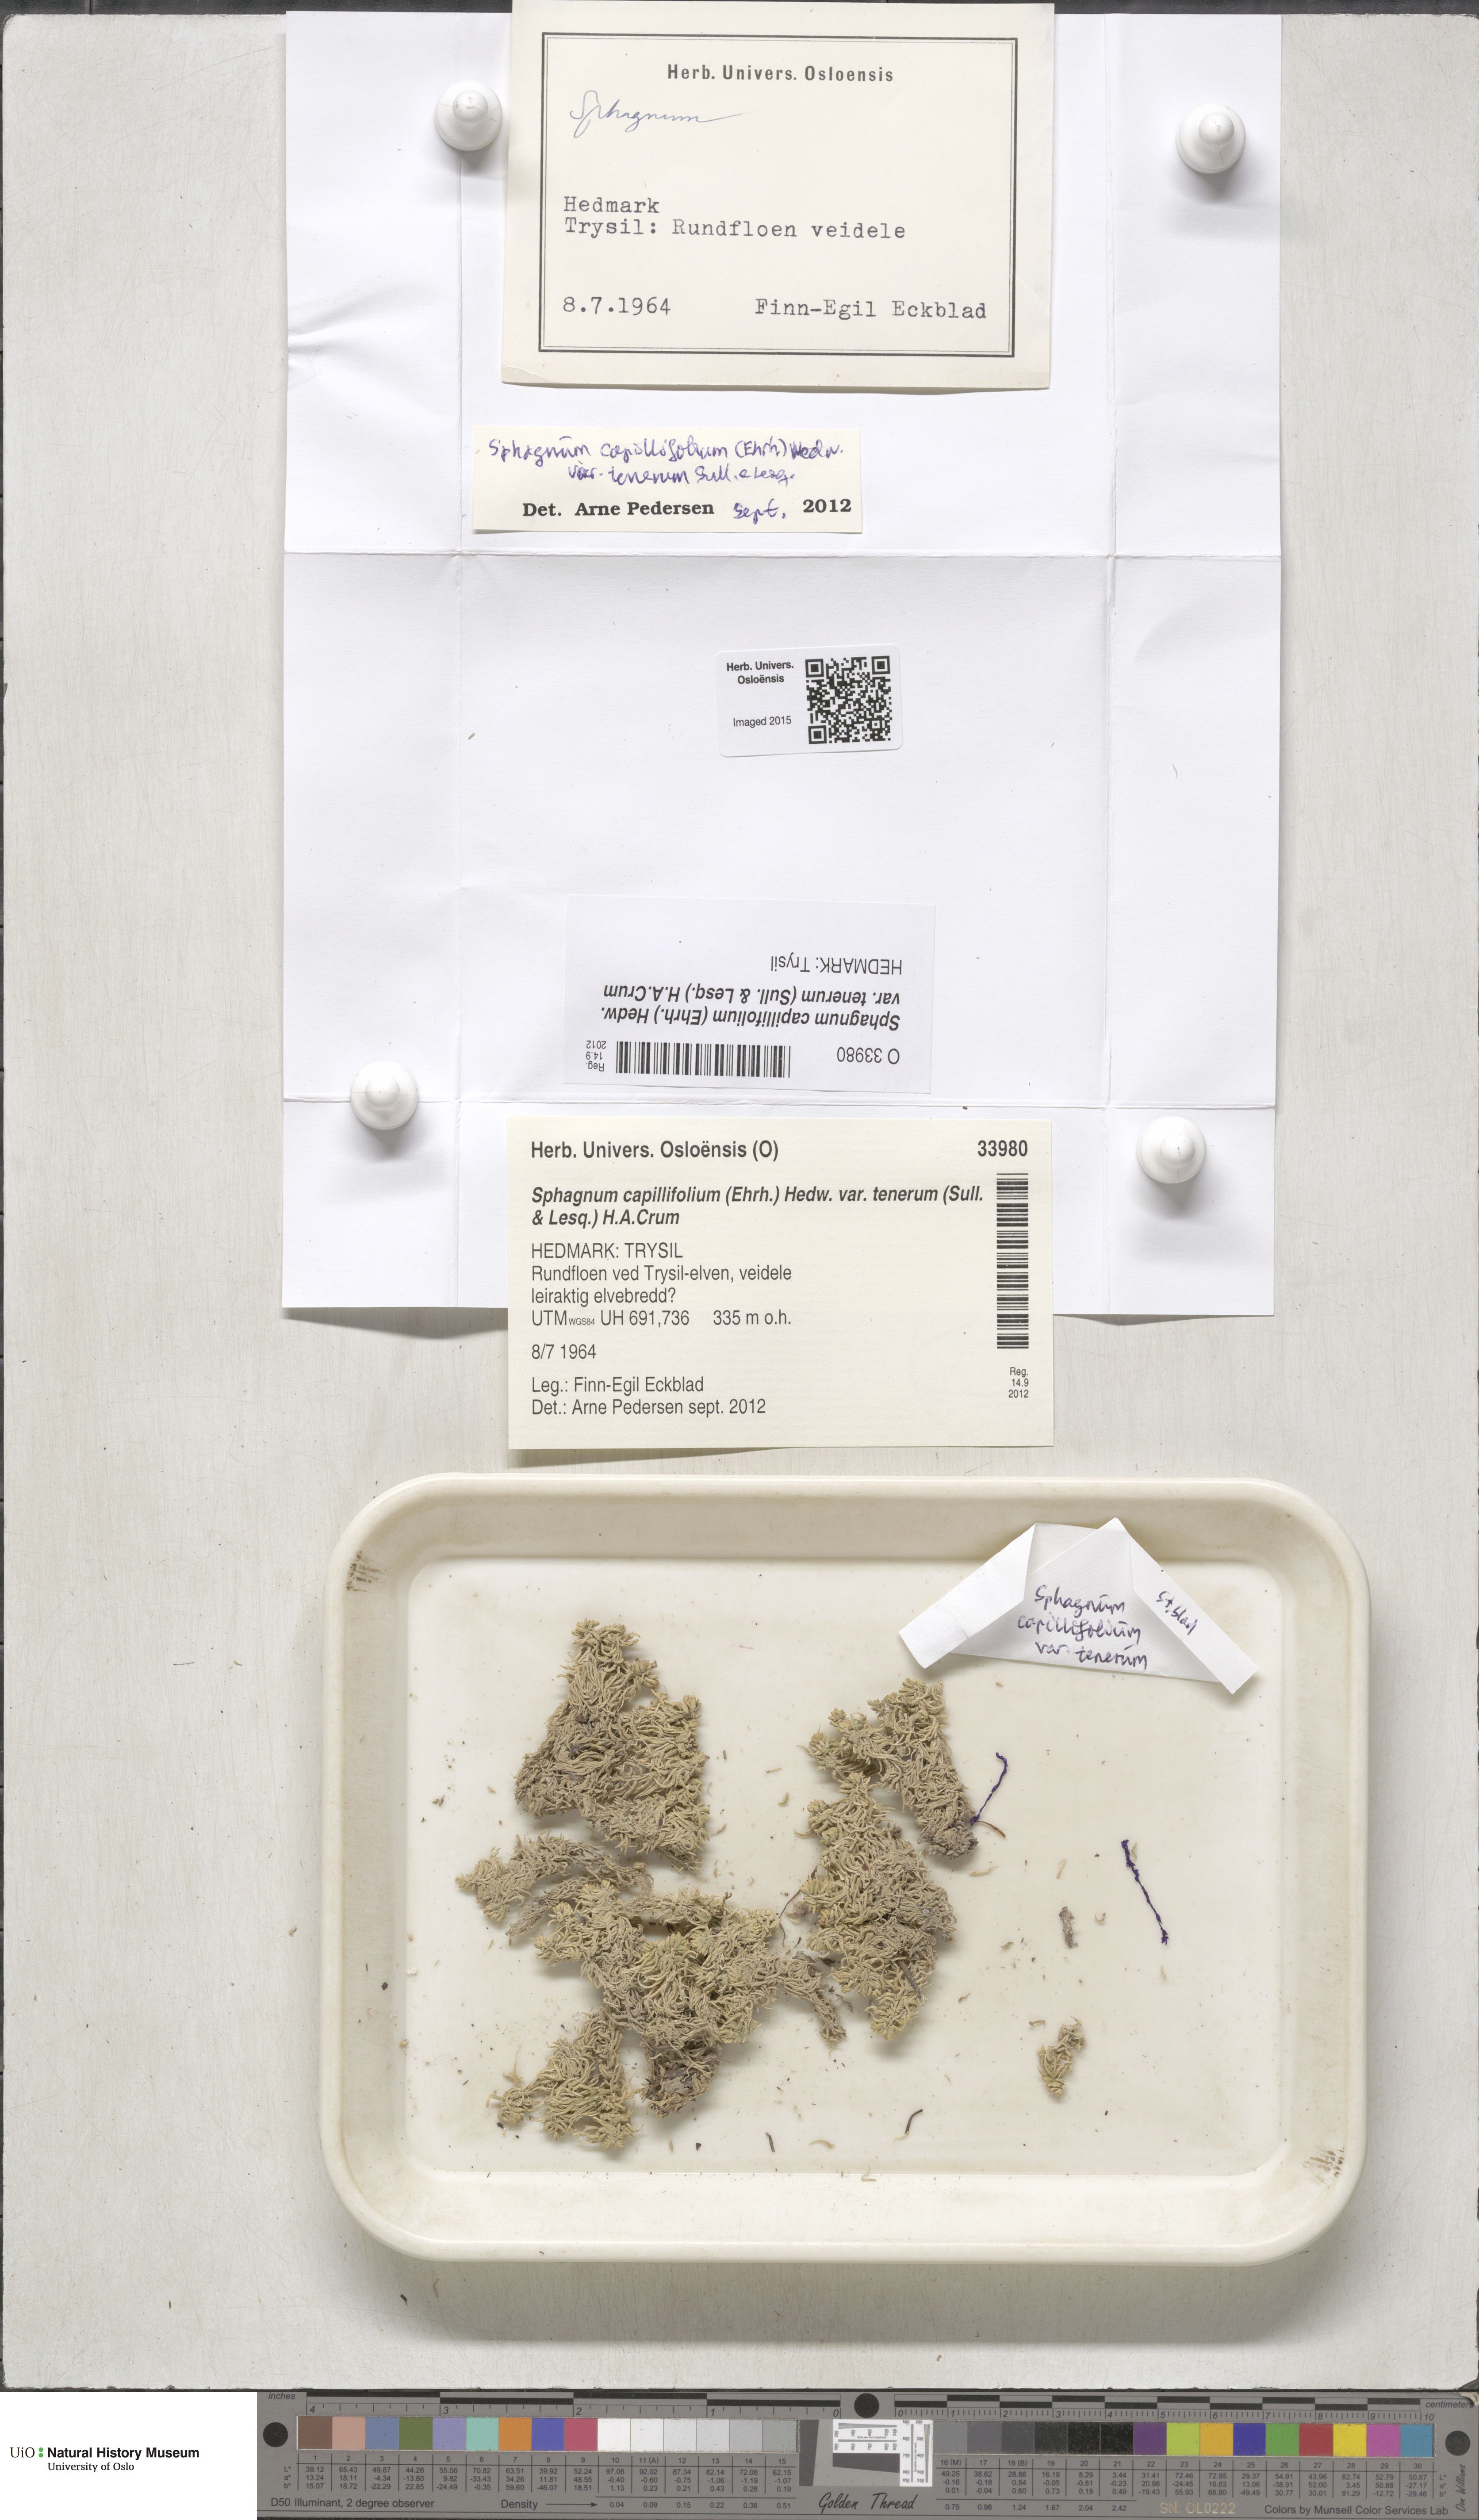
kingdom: Plantae
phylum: Bryophyta
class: Sphagnopsida
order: Sphagnales
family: Sphagnaceae
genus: Sphagnum
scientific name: Sphagnum tenerum
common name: Slender peat moss
